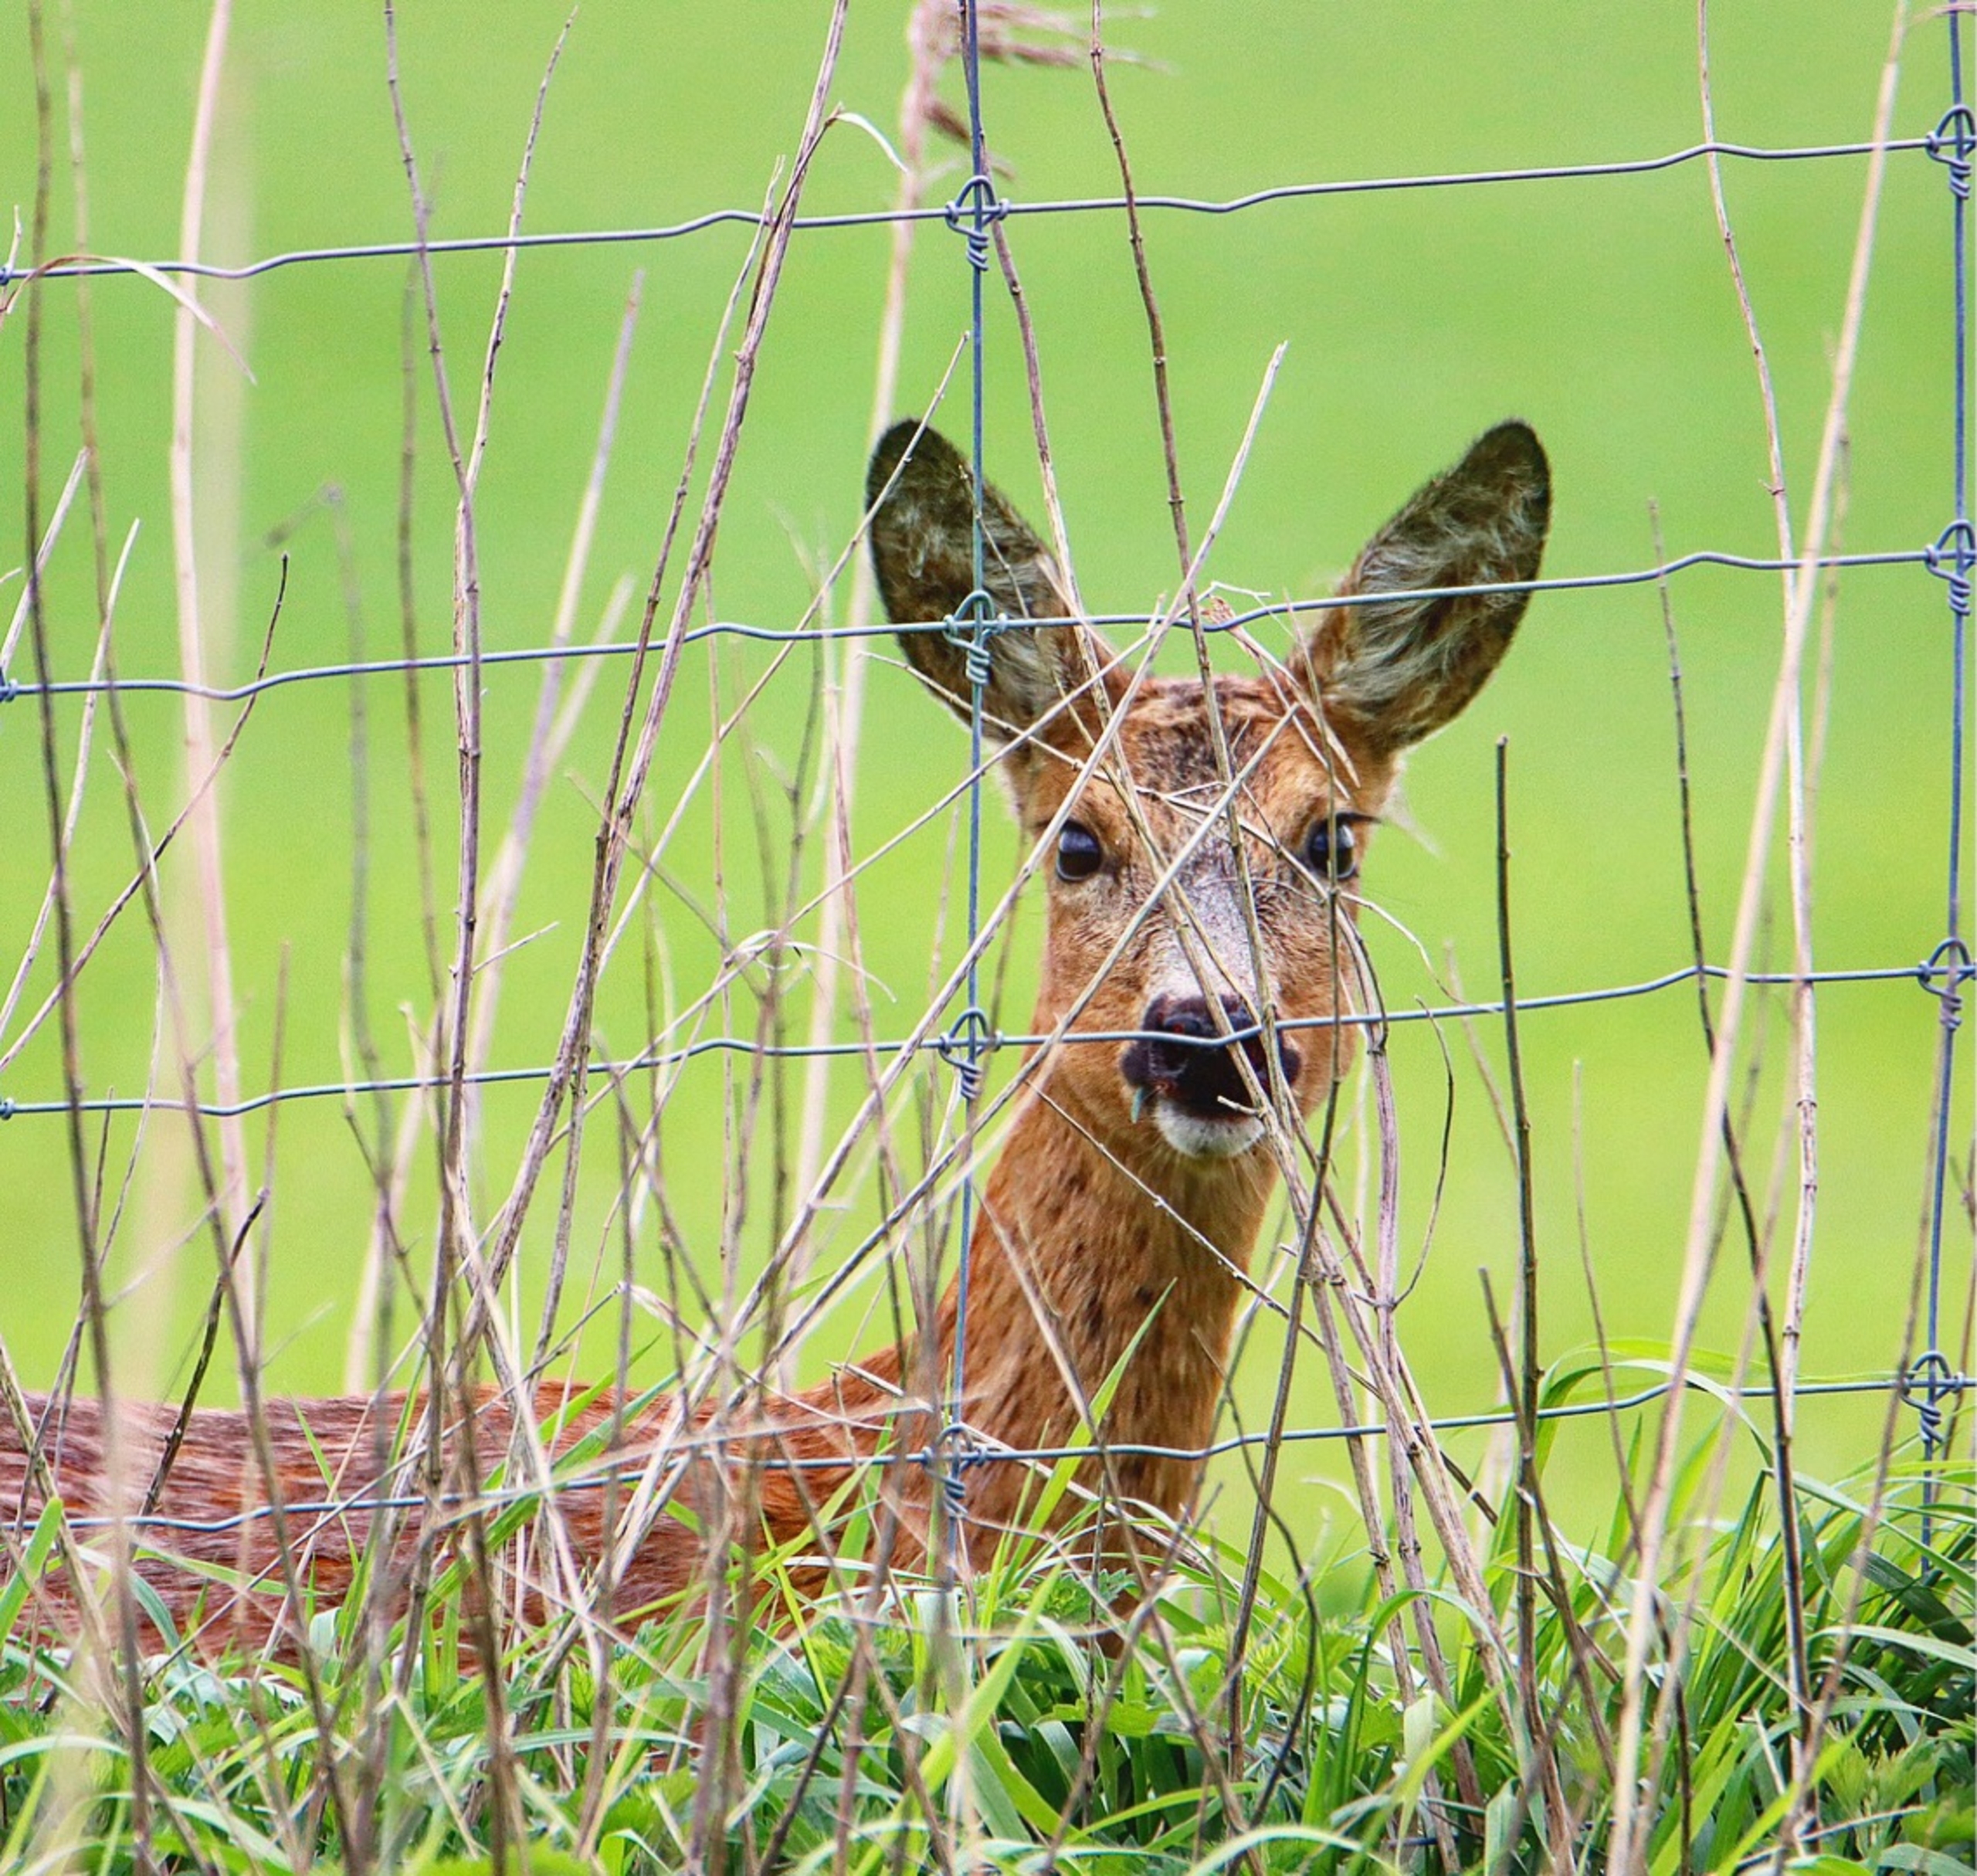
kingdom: Animalia
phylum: Chordata
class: Mammalia
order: Artiodactyla
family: Cervidae
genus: Capreolus
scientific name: Capreolus capreolus
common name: Rådyr
